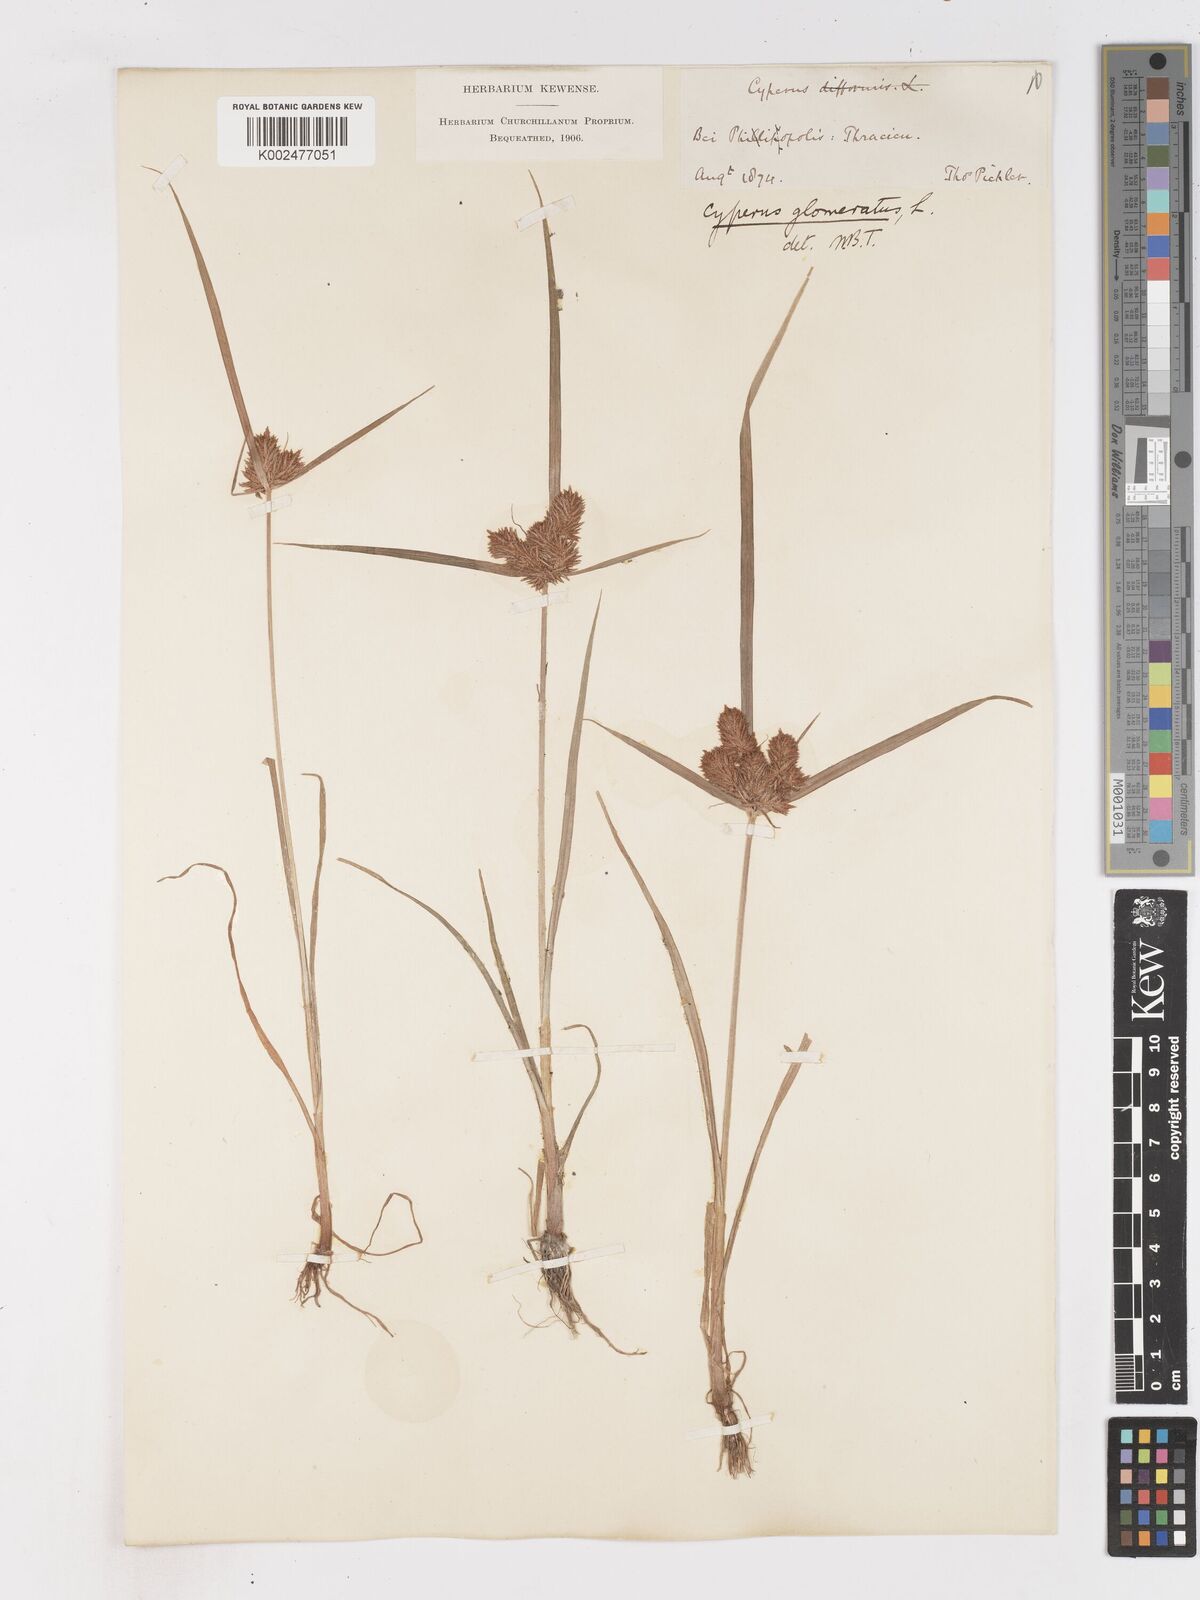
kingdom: Plantae
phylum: Tracheophyta
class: Liliopsida
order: Poales
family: Cyperaceae
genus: Cyperus
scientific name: Cyperus glomeratus
